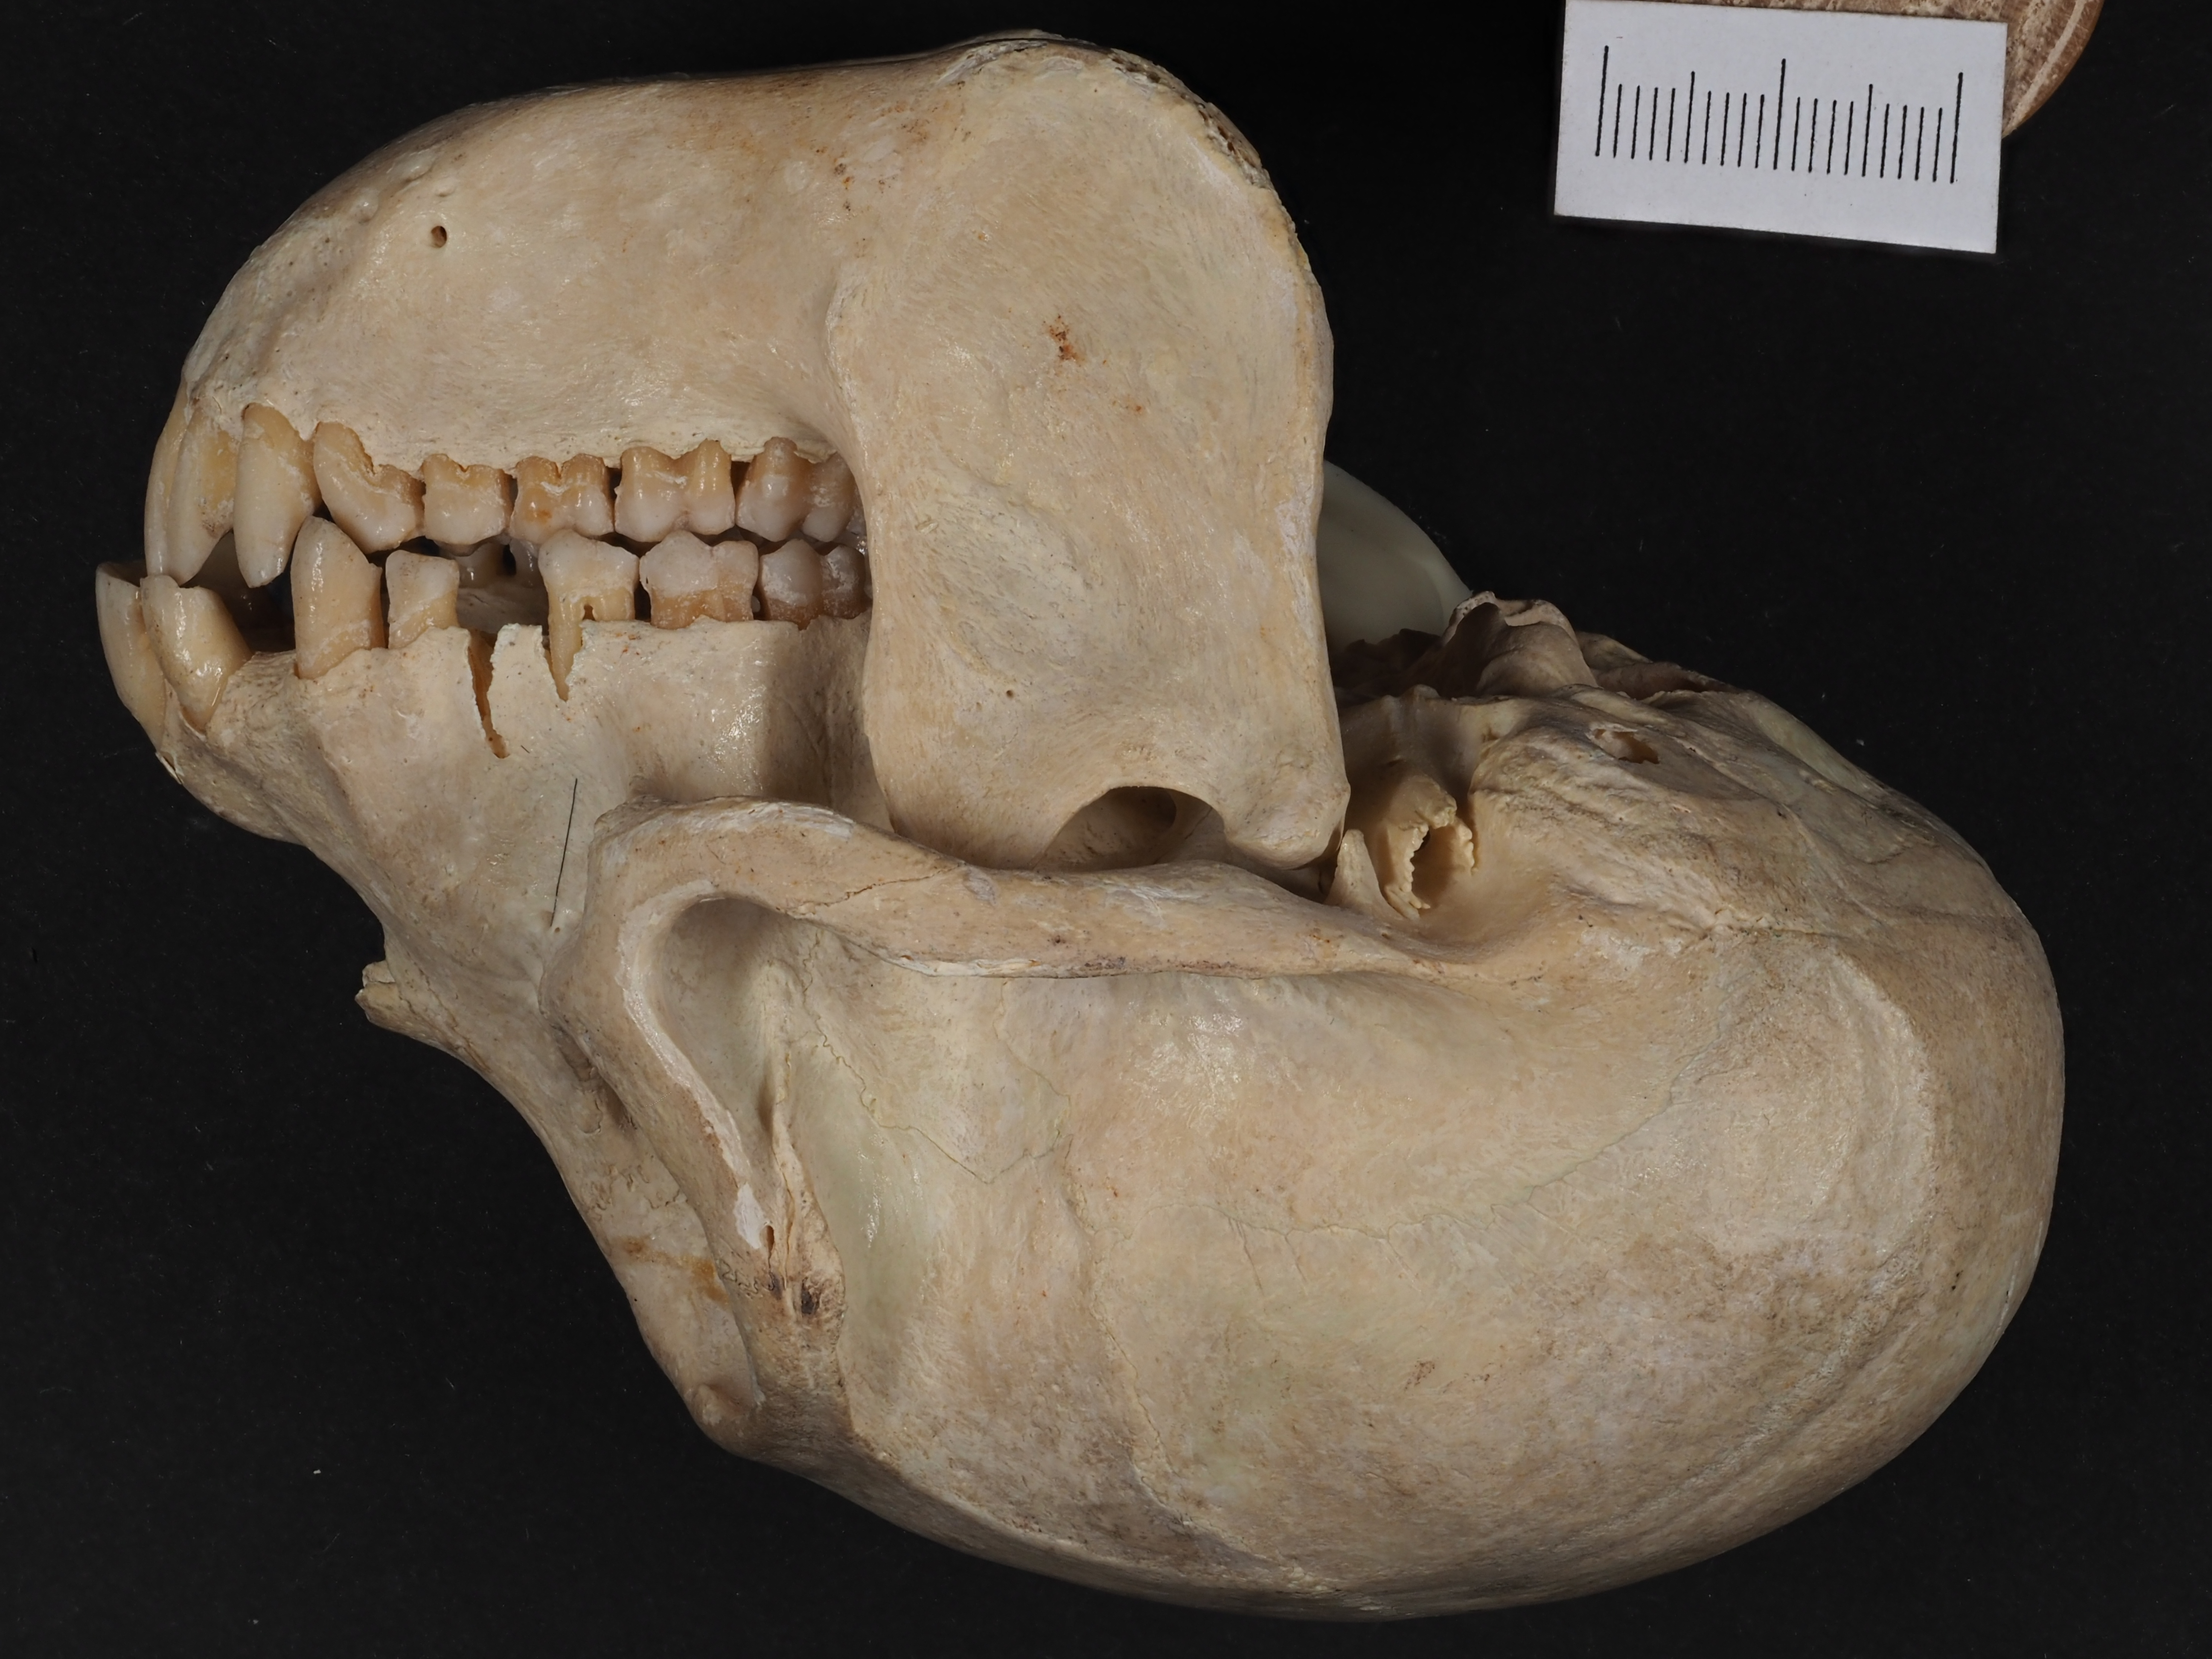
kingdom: Animalia
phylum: Chordata
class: Mammalia
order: Primates
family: Cercopithecidae
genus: Cercopithecus
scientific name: Cercopithecus ascanius
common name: Red-tailed monkey
